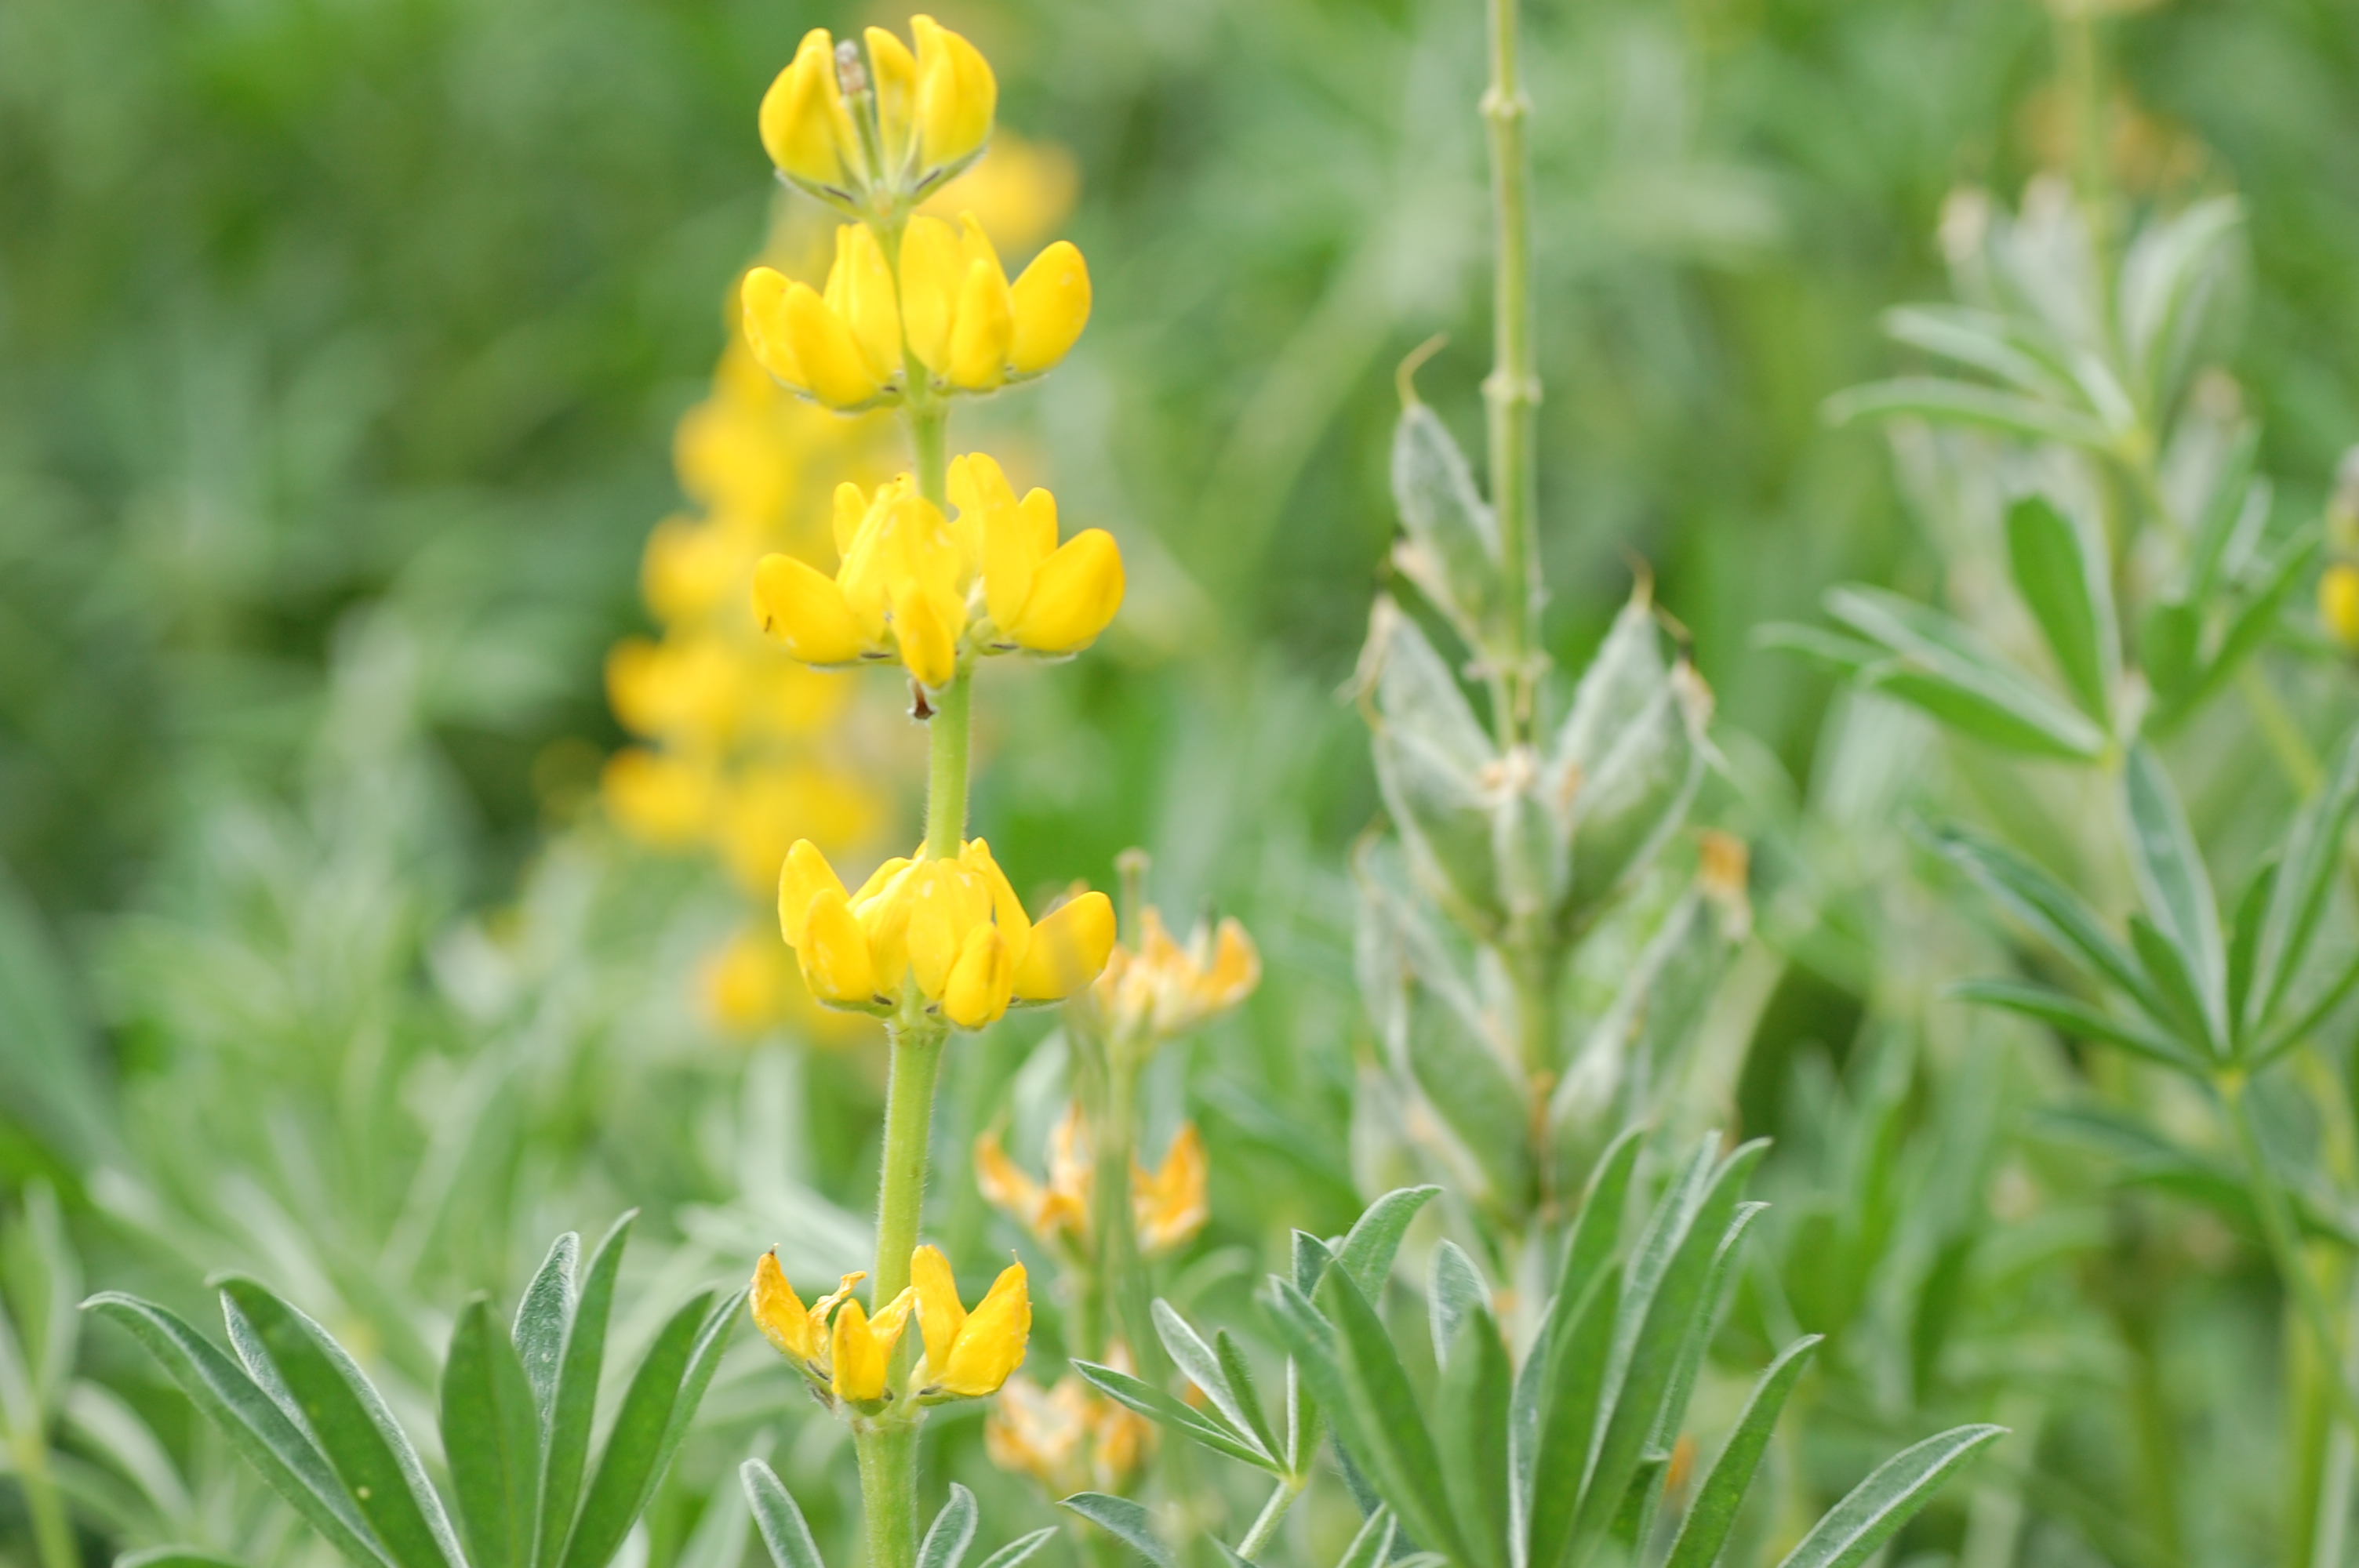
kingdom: Plantae
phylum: Tracheophyta
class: Magnoliopsida
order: Fabales
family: Fabaceae
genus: Lupinus
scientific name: Lupinus luteus
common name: European yellow lupine
